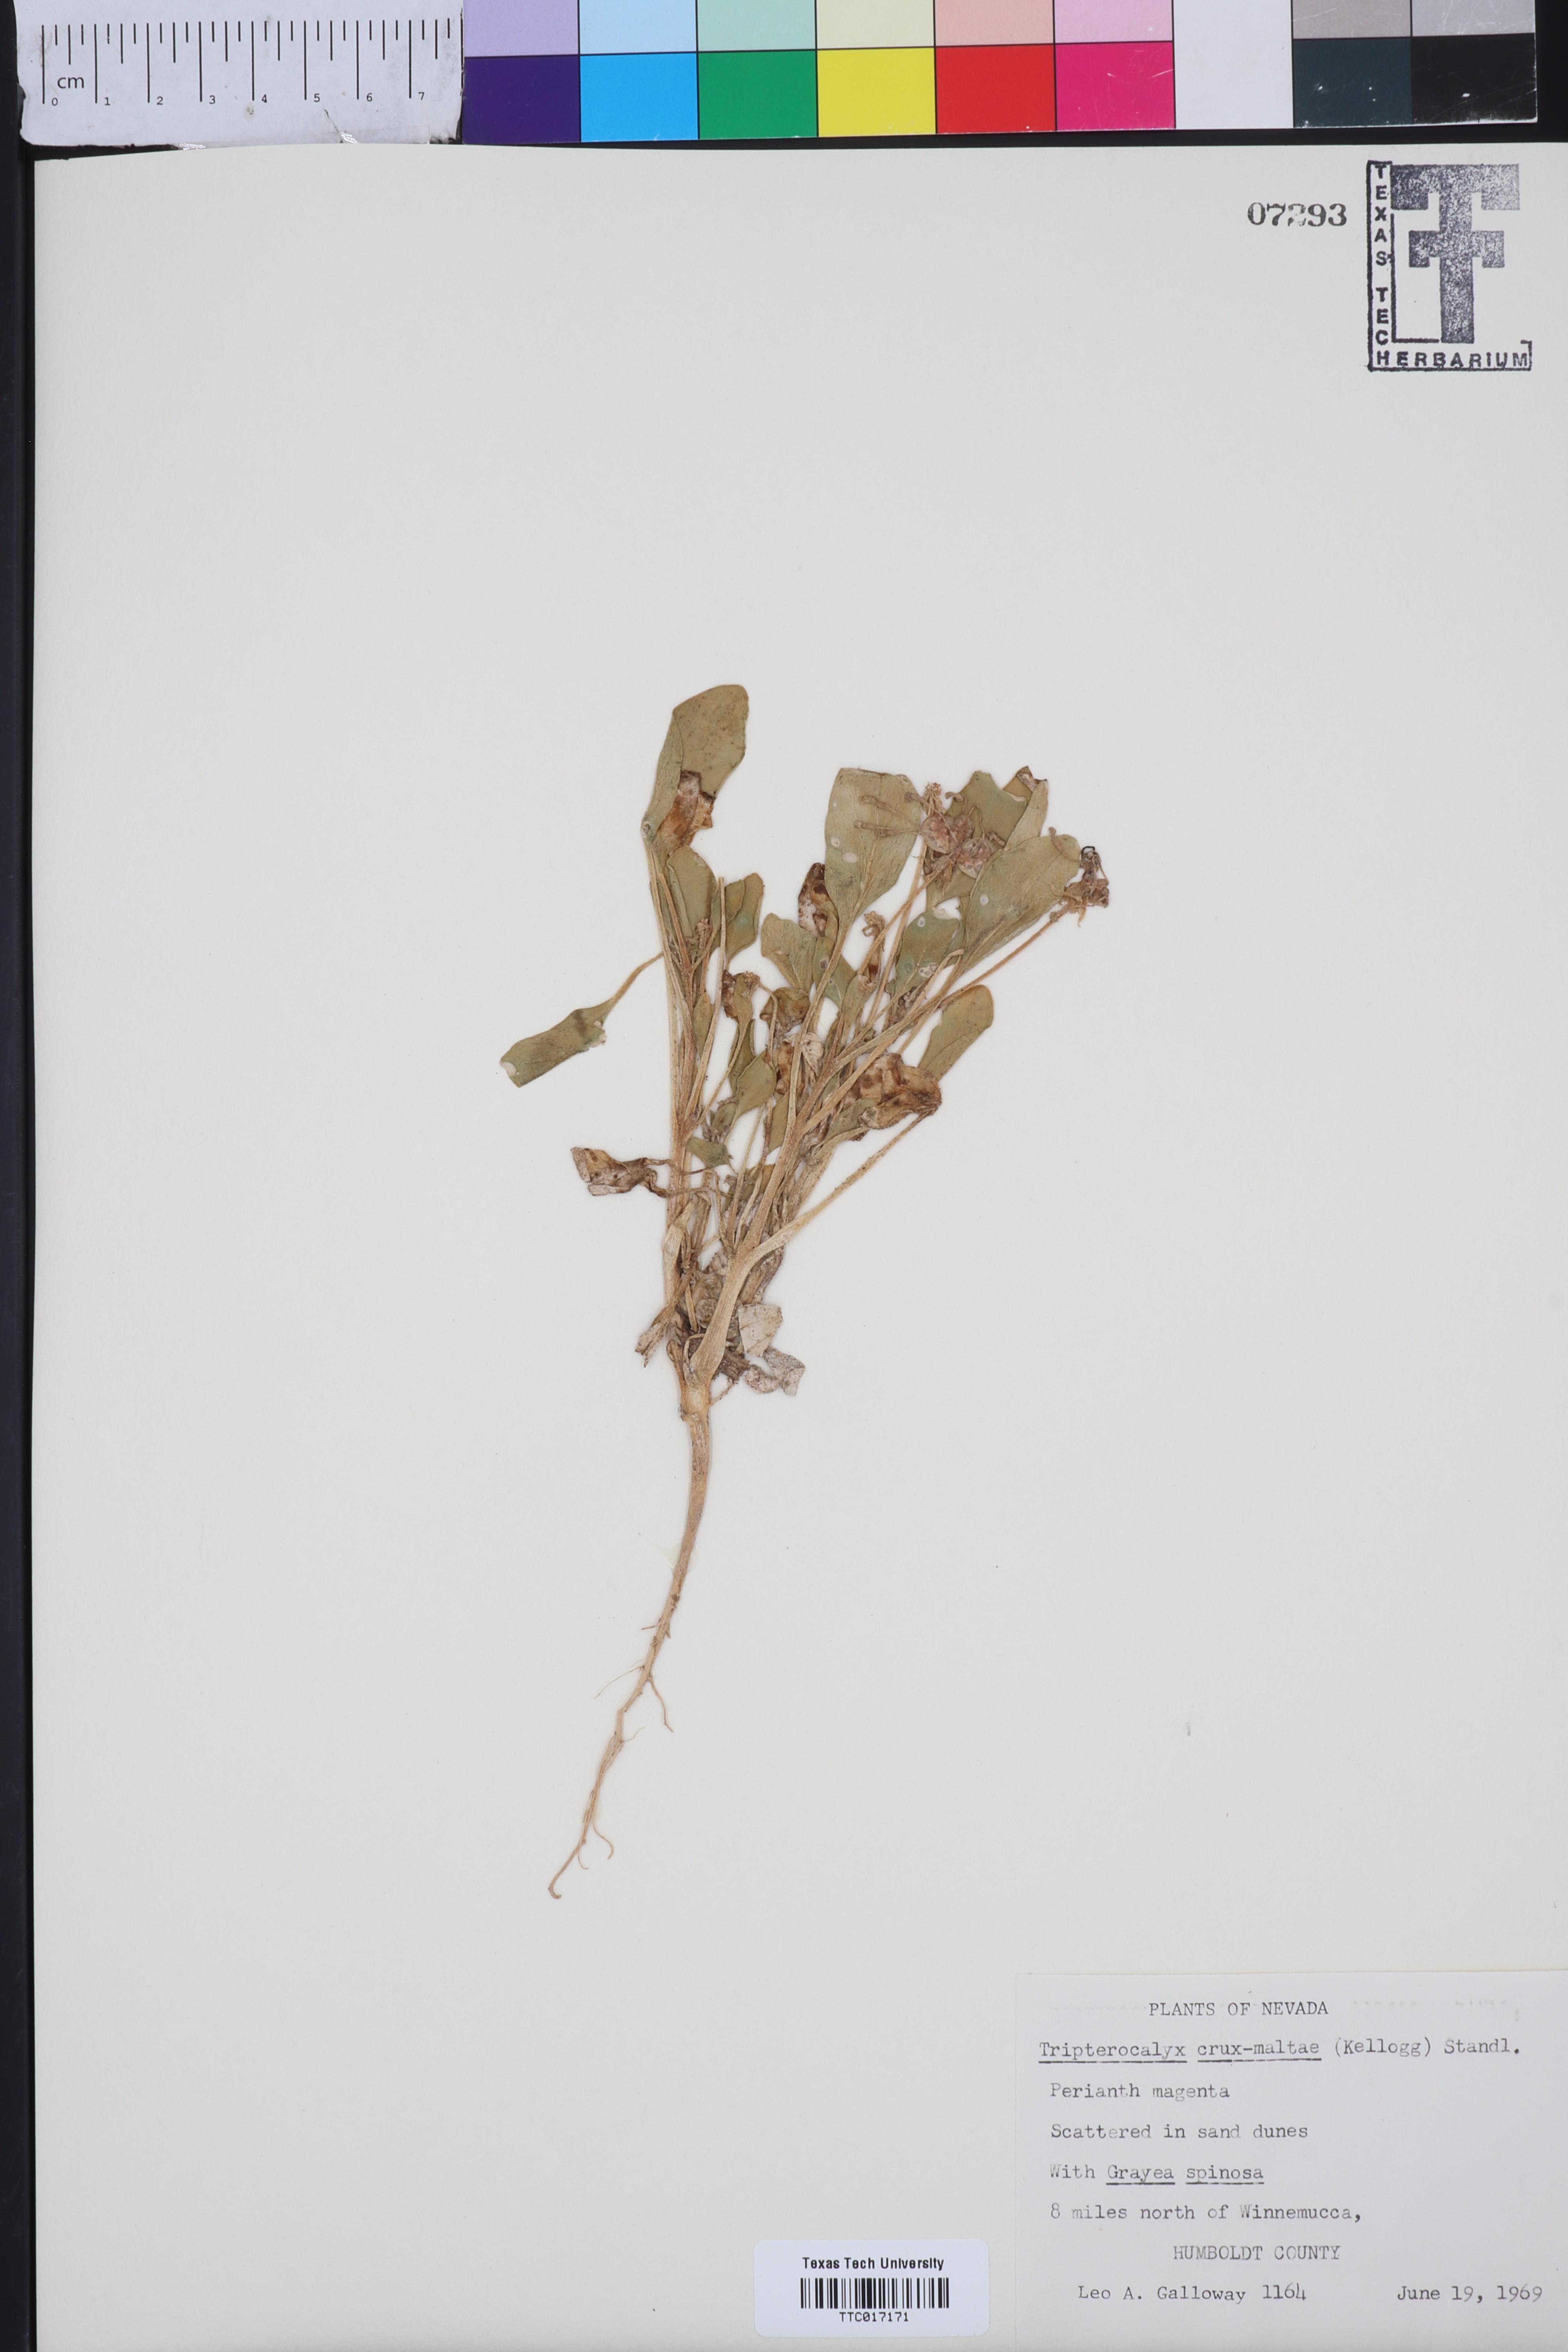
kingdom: Plantae
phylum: Tracheophyta
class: Magnoliopsida
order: Caryophyllales
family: Nyctaginaceae
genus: Tripterocalyx
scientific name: Tripterocalyx crux-maltae
